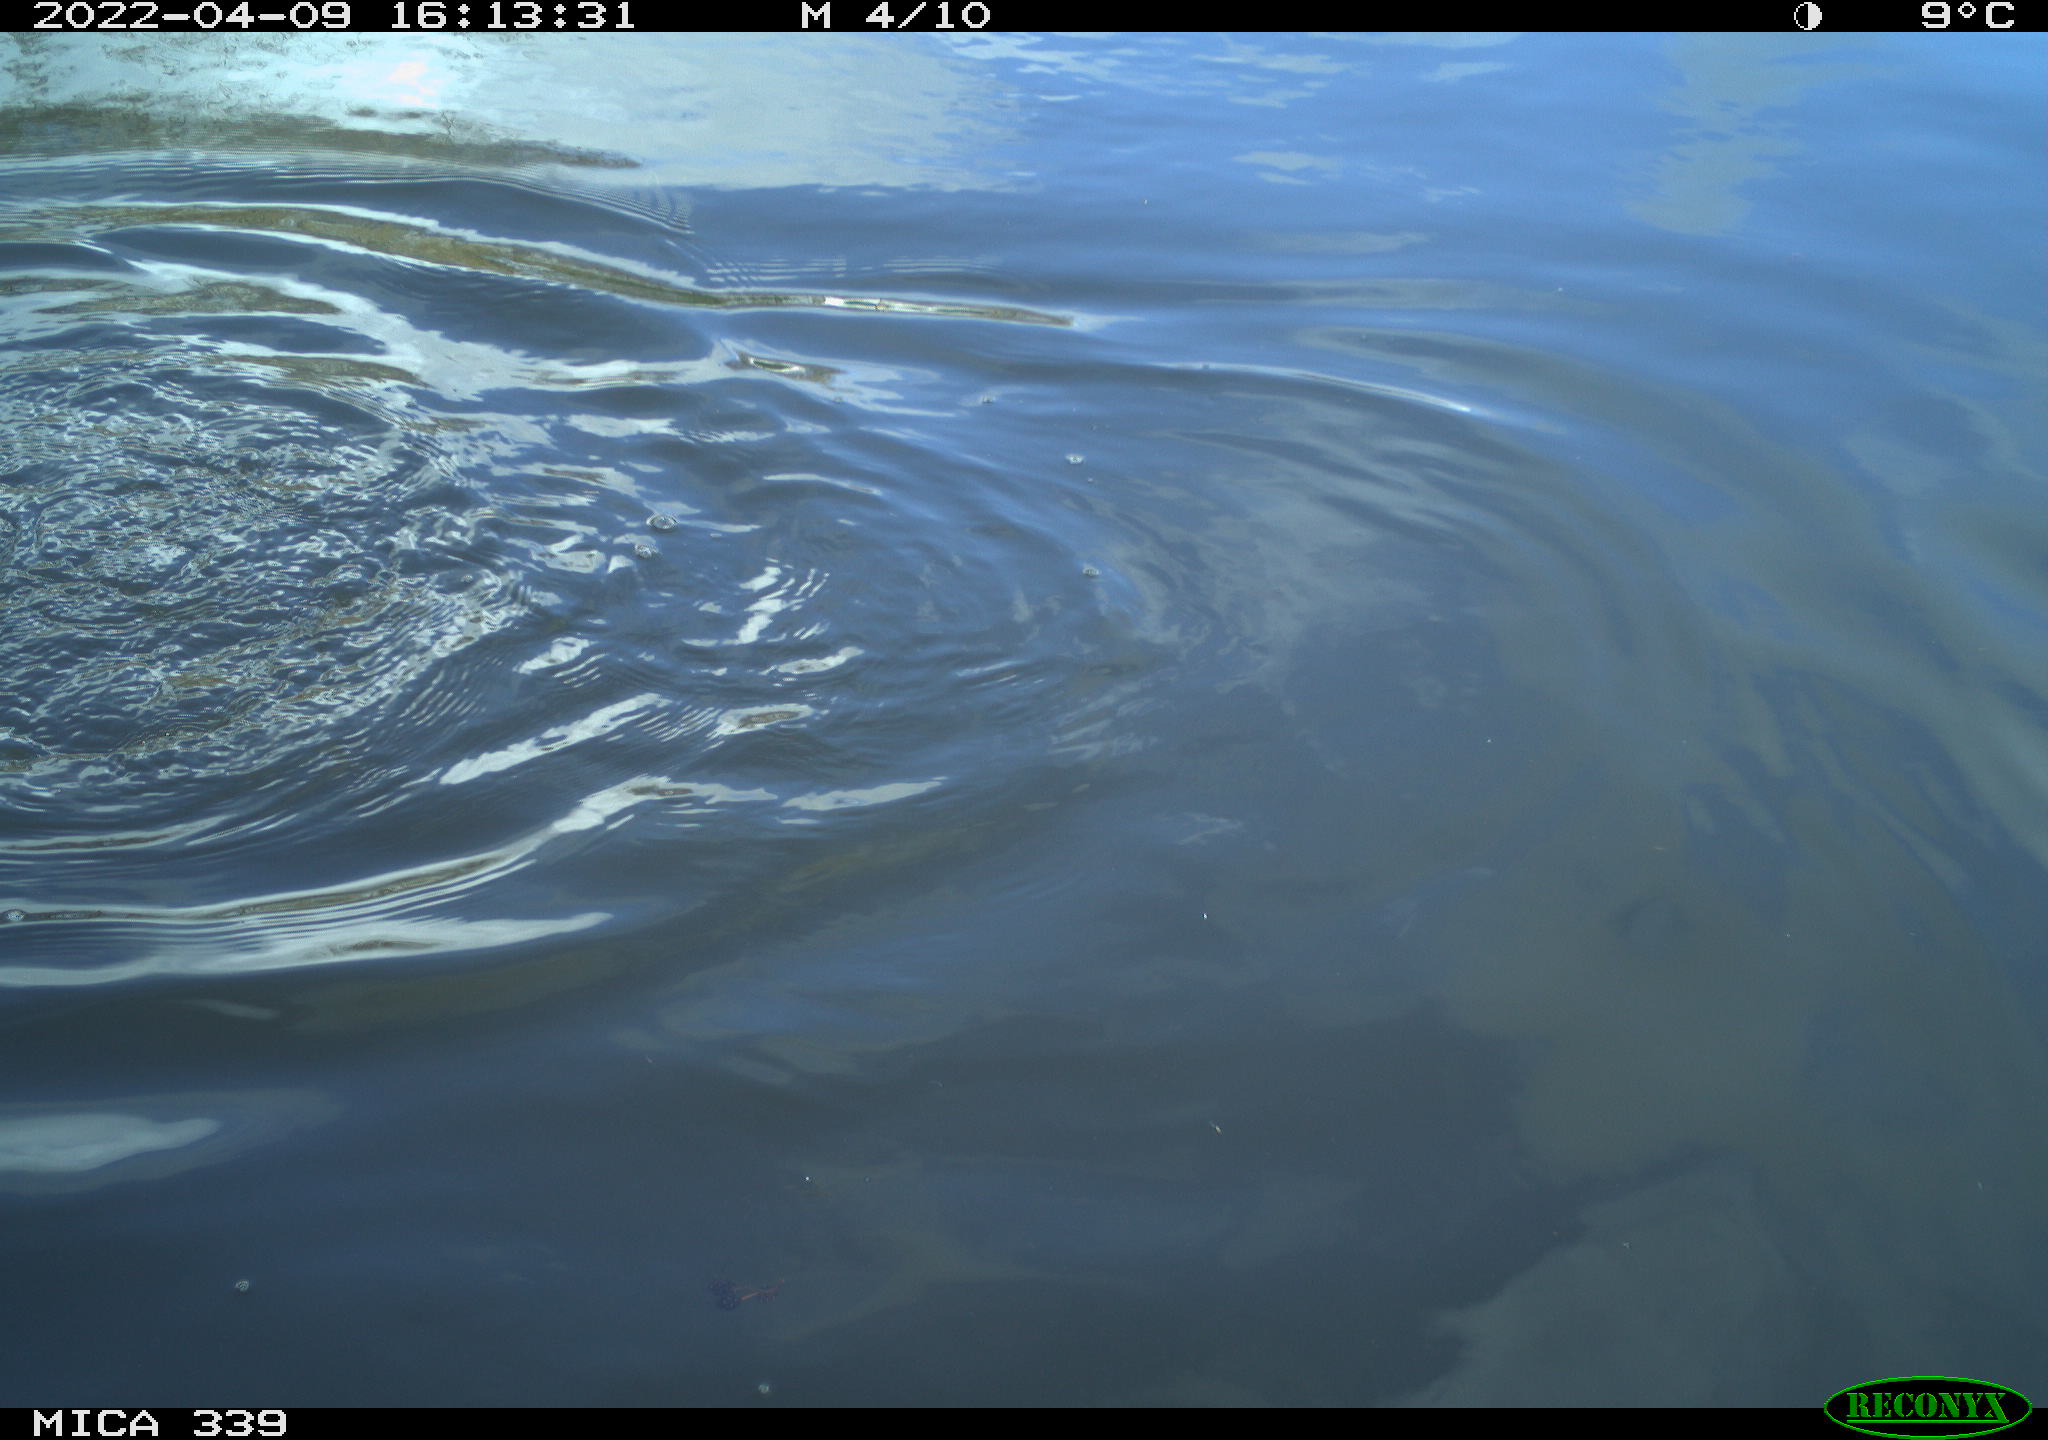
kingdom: Animalia
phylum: Chordata
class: Aves
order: Suliformes
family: Phalacrocoracidae
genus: Phalacrocorax
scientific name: Phalacrocorax carbo
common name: Great cormorant
